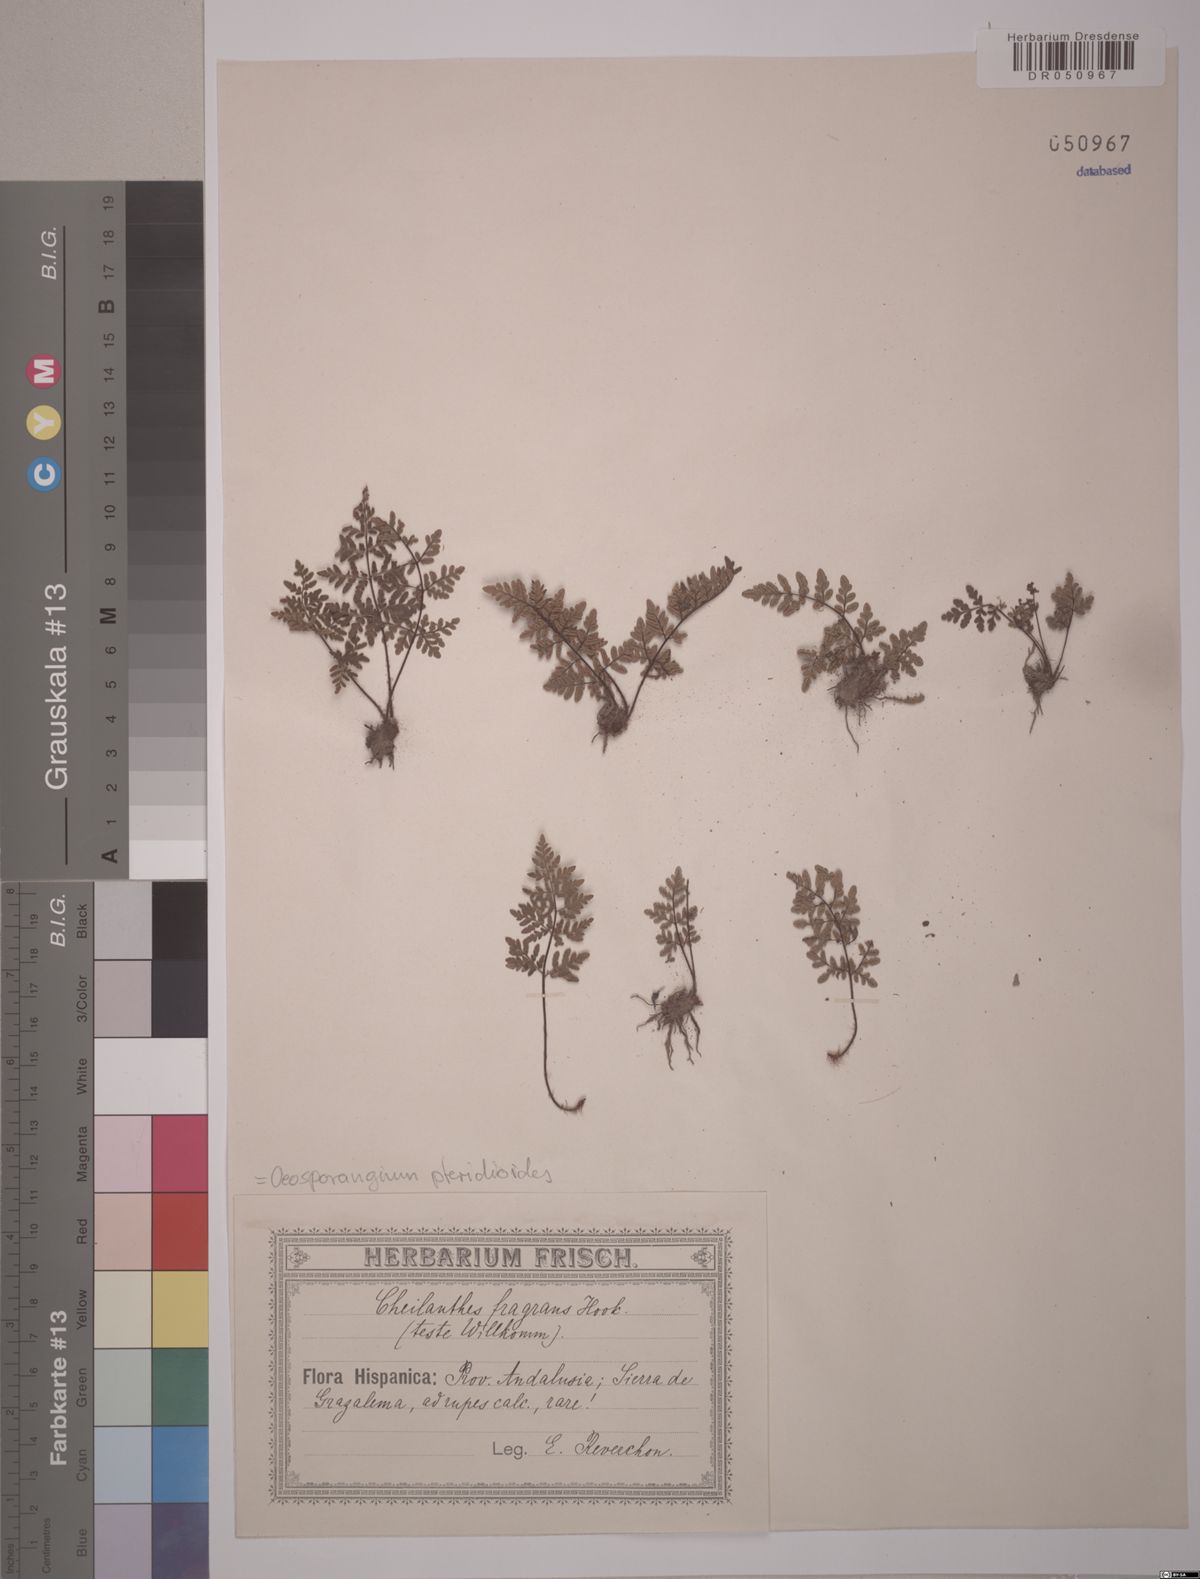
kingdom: Plantae
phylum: Tracheophyta
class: Polypodiopsida
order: Polypodiales
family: Pteridaceae
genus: Oeosporangium
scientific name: Oeosporangium pteridioides
